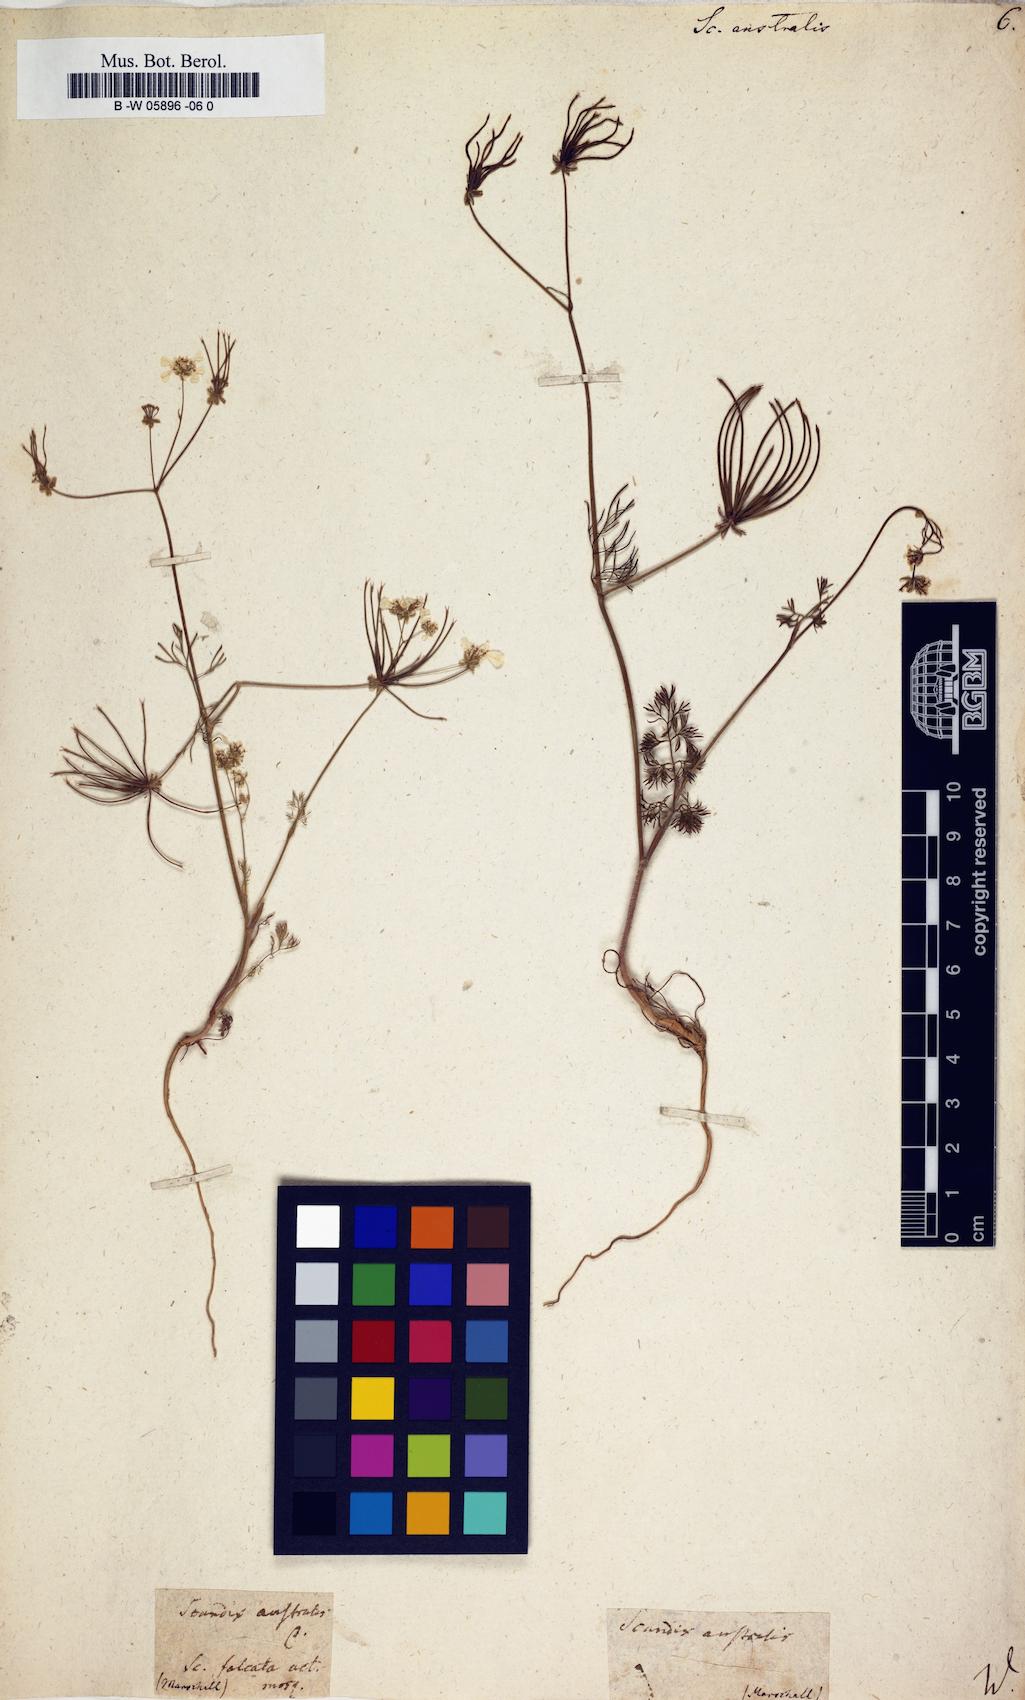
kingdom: Plantae
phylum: Tracheophyta
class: Magnoliopsida
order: Apiales
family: Apiaceae
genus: Scandix
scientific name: Scandix australis
